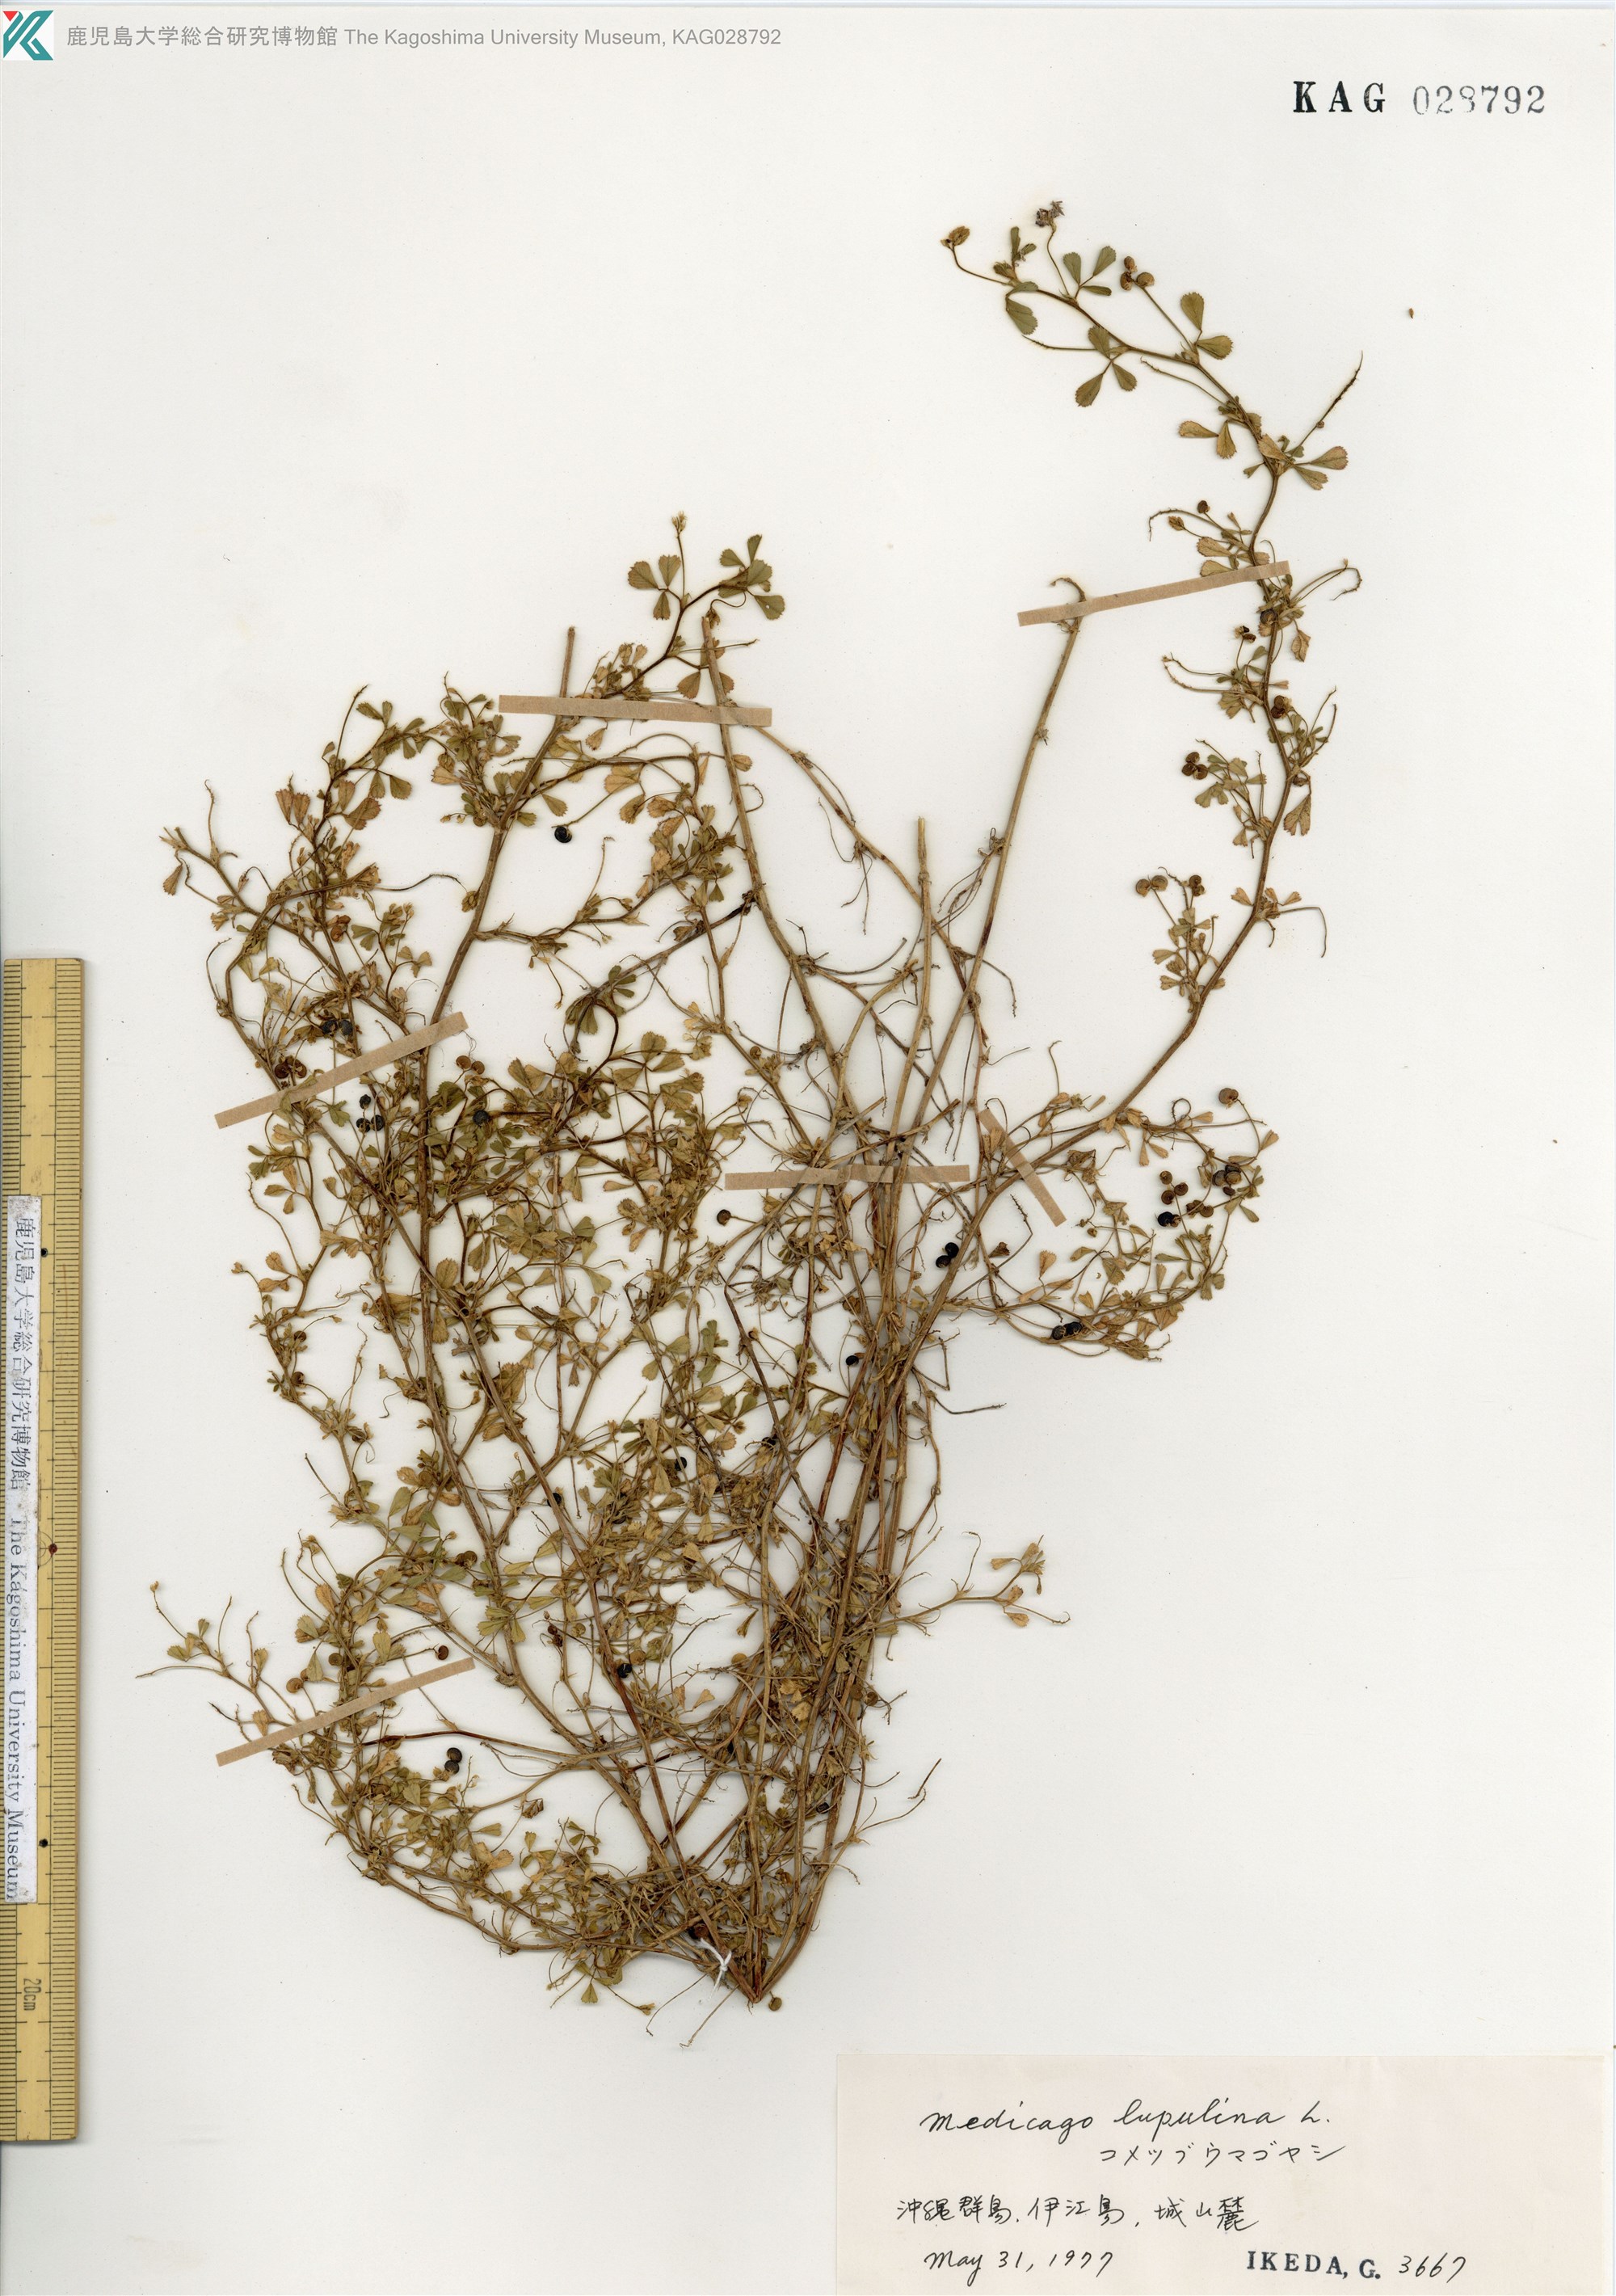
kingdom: Plantae
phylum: Tracheophyta
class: Magnoliopsida
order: Fabales
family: Fabaceae
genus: Medicago
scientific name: Medicago lupulina
